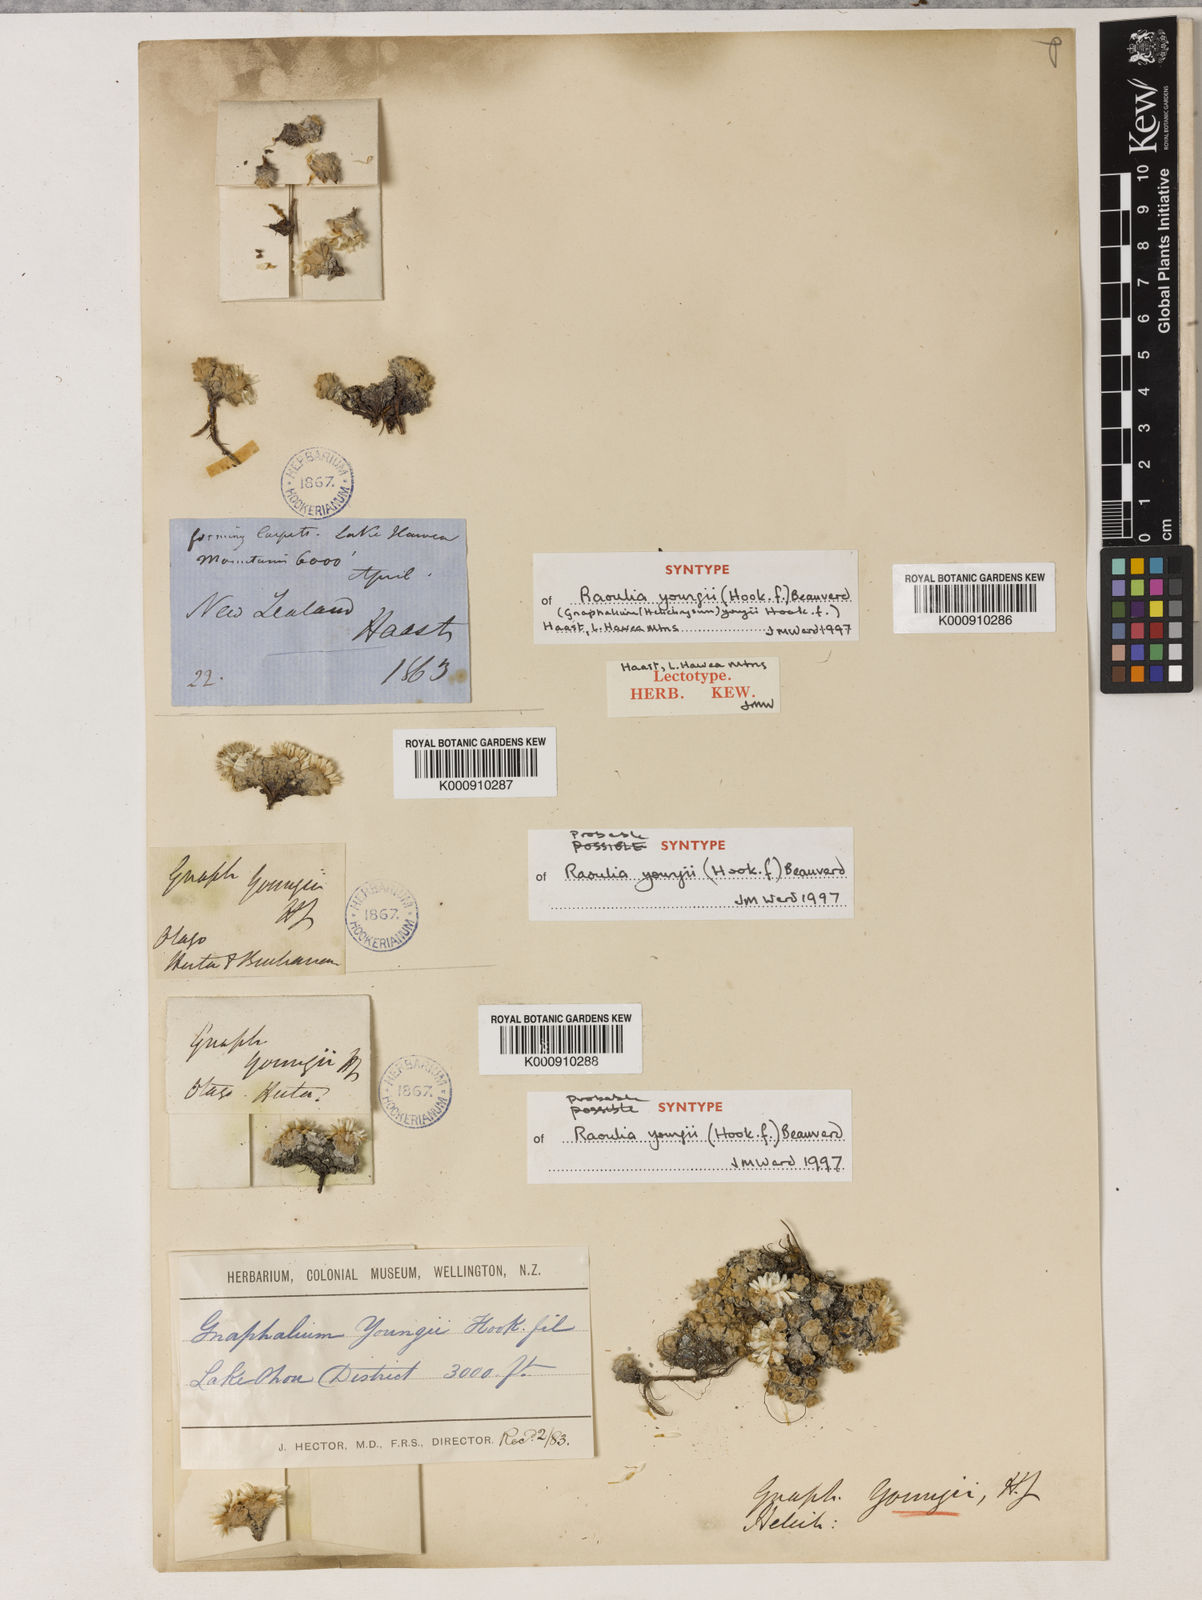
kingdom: Plantae
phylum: Tracheophyta
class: Magnoliopsida
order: Asterales
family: Asteraceae
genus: Raoulia
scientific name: Raoulia youngii
